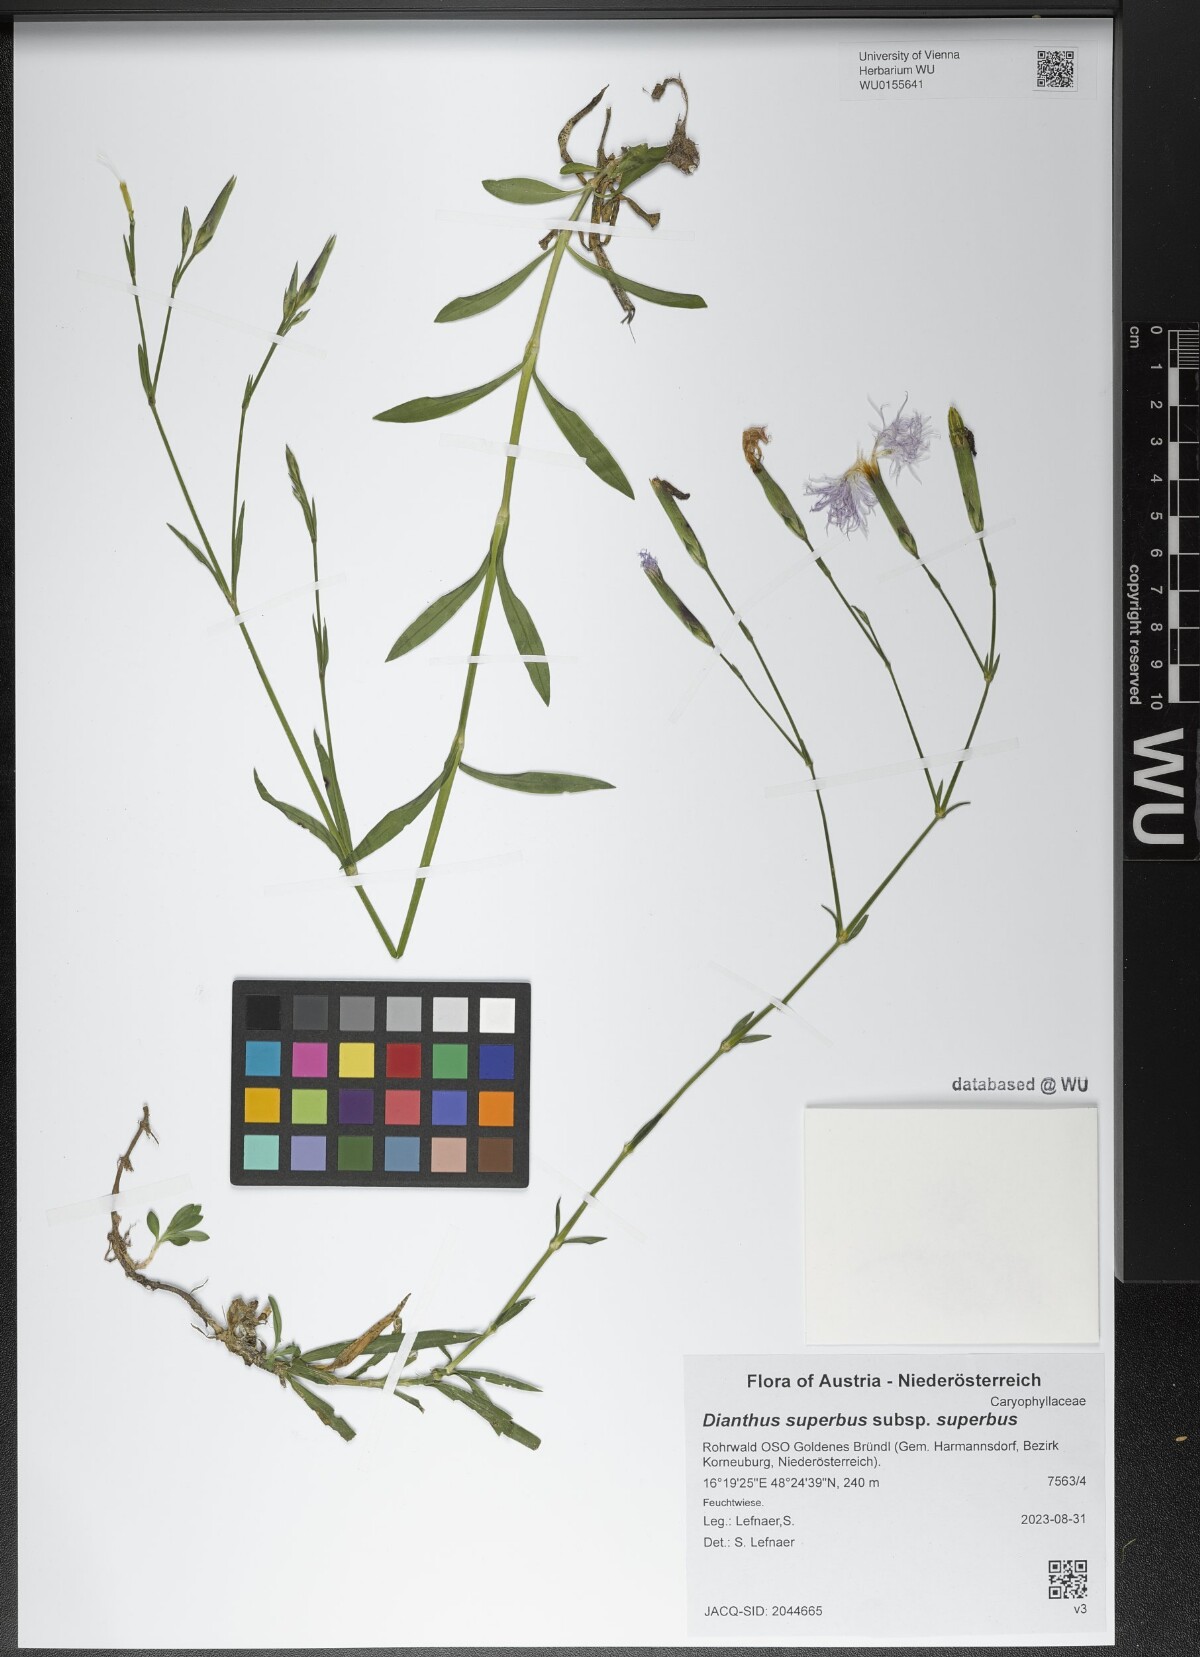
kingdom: Plantae
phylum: Tracheophyta
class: Magnoliopsida
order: Caryophyllales
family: Caryophyllaceae
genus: Dianthus
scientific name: Dianthus superbus
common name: Fringed pink
